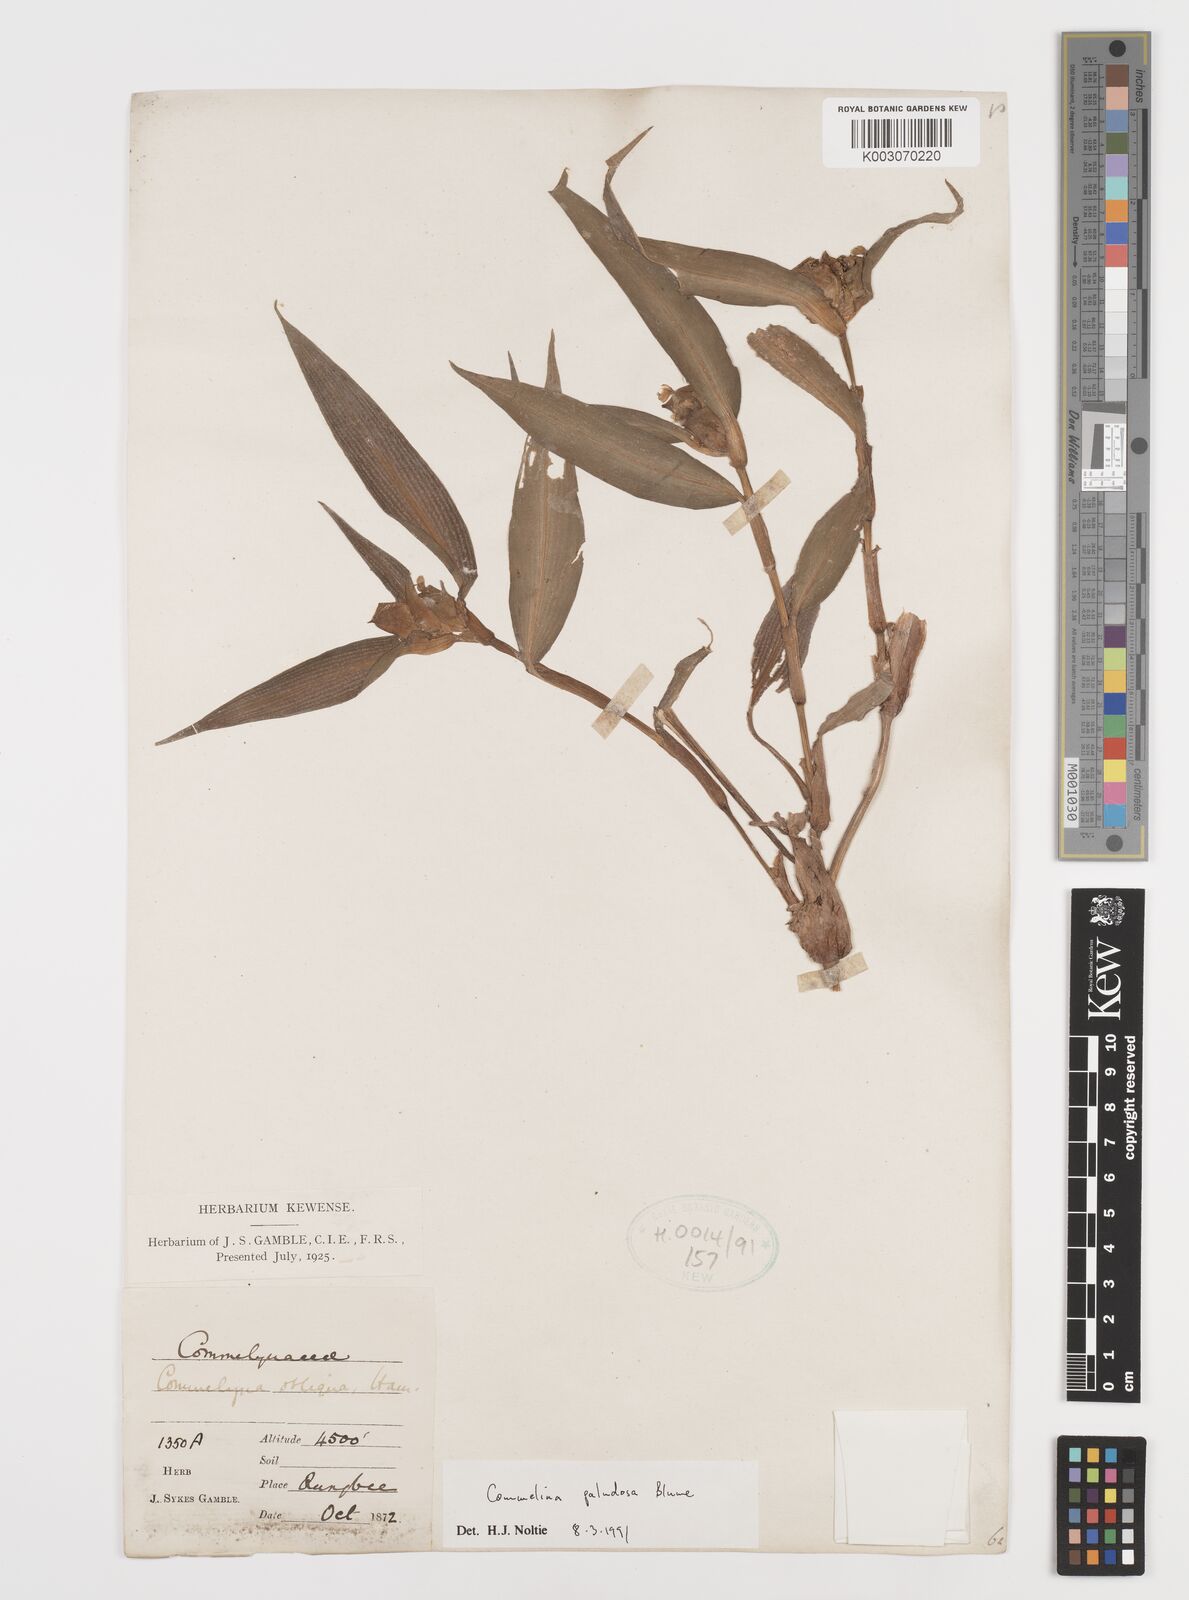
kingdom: Plantae
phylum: Tracheophyta
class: Liliopsida
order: Commelinales
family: Commelinaceae
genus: Commelina
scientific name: Commelina paludosa
